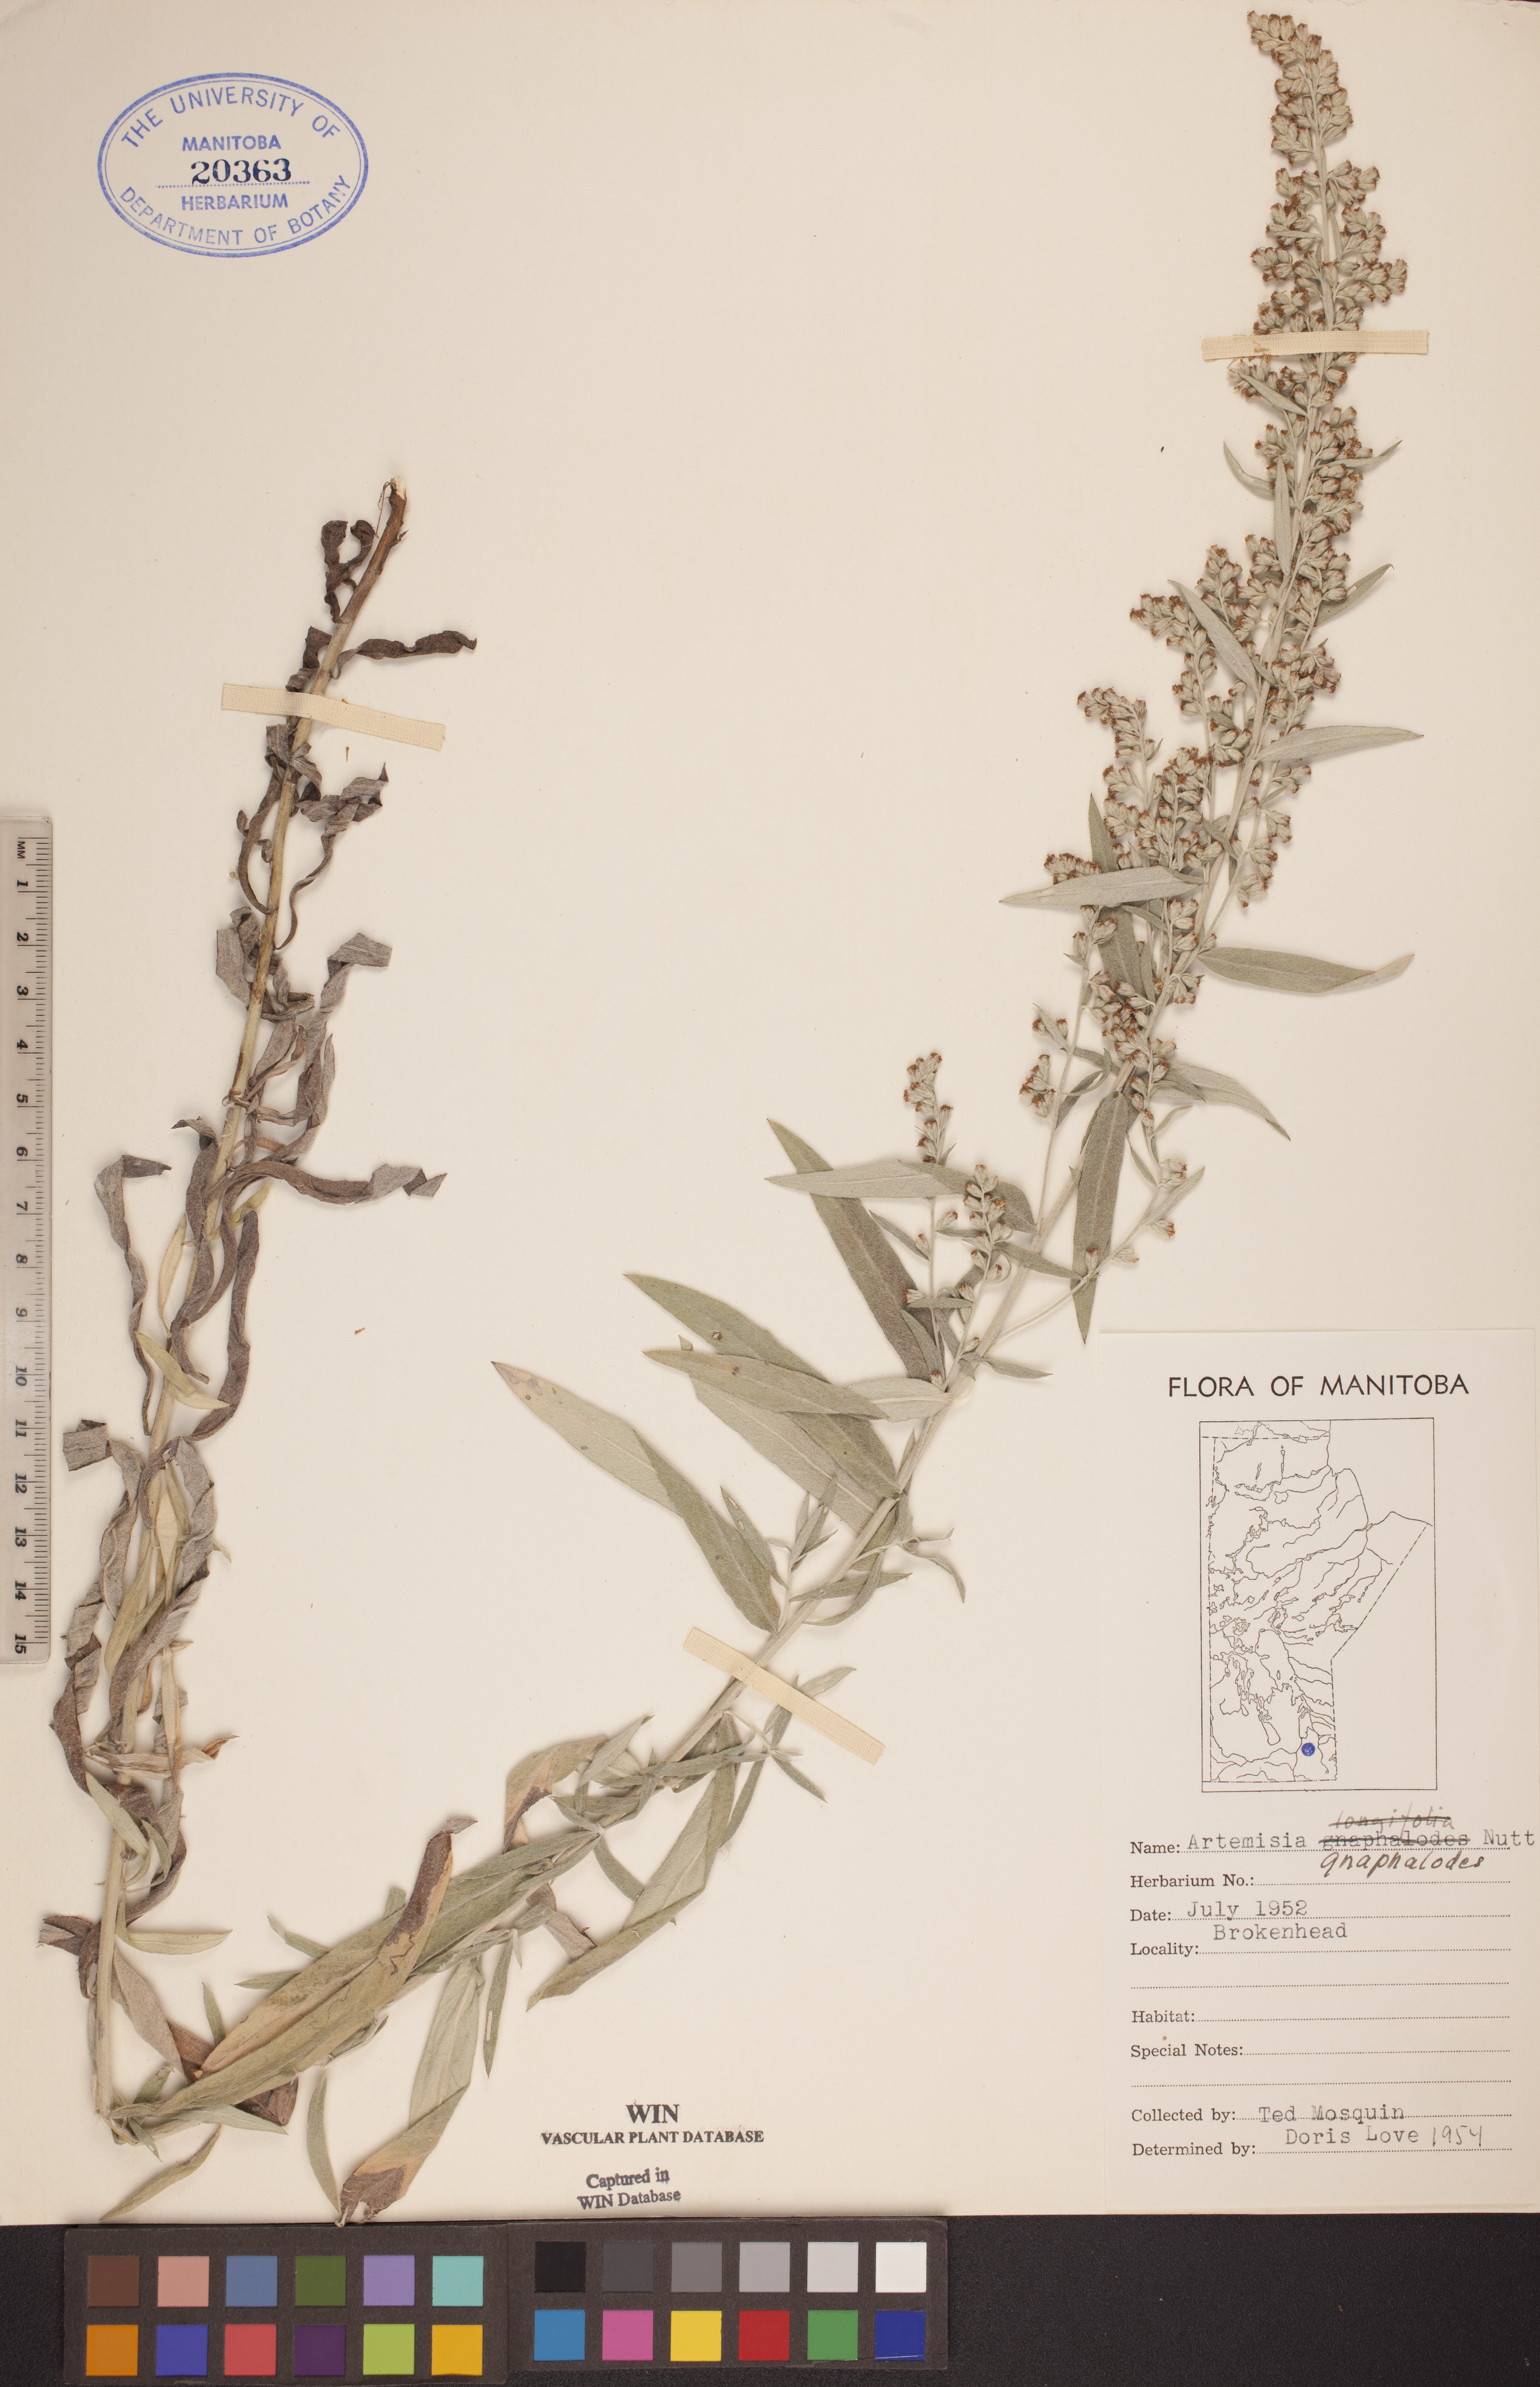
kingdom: Plantae
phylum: Tracheophyta
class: Magnoliopsida
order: Asterales
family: Asteraceae
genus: Artemisia
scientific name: Artemisia ludoviciana
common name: Western mugwort
